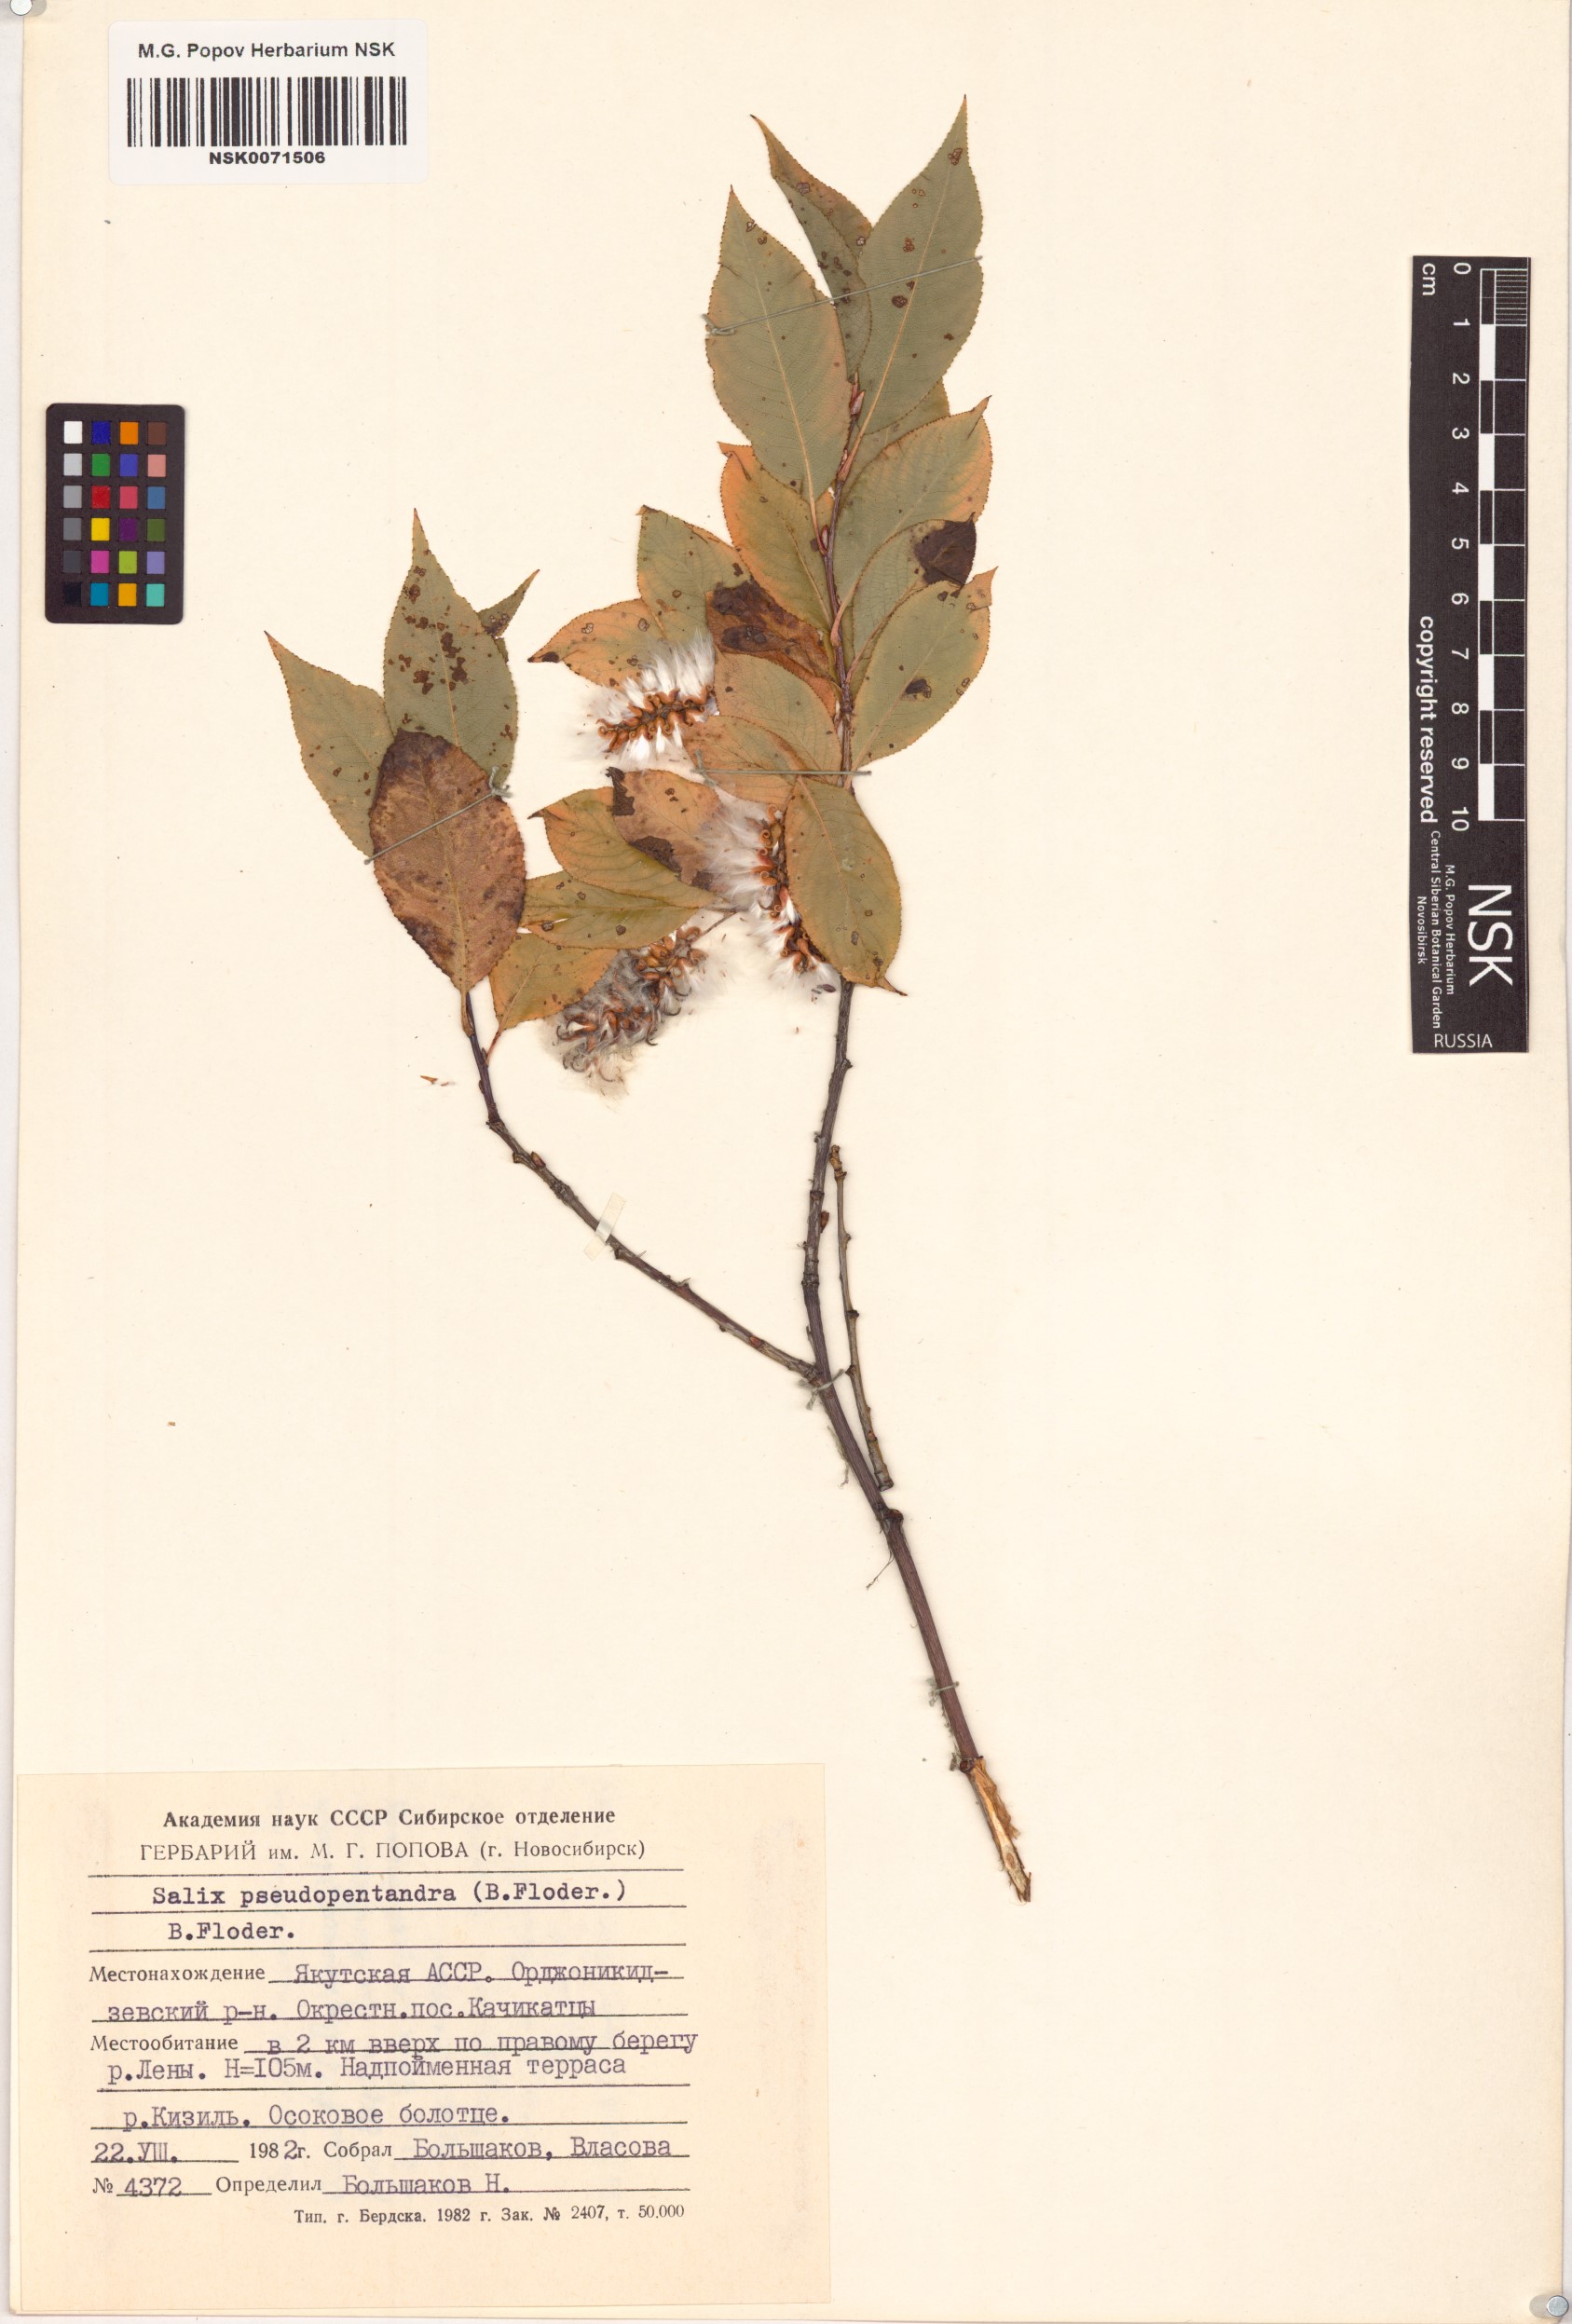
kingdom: Plantae
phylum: Tracheophyta
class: Magnoliopsida
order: Malpighiales
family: Salicaceae
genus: Salix
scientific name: Salix pseudopentandra
